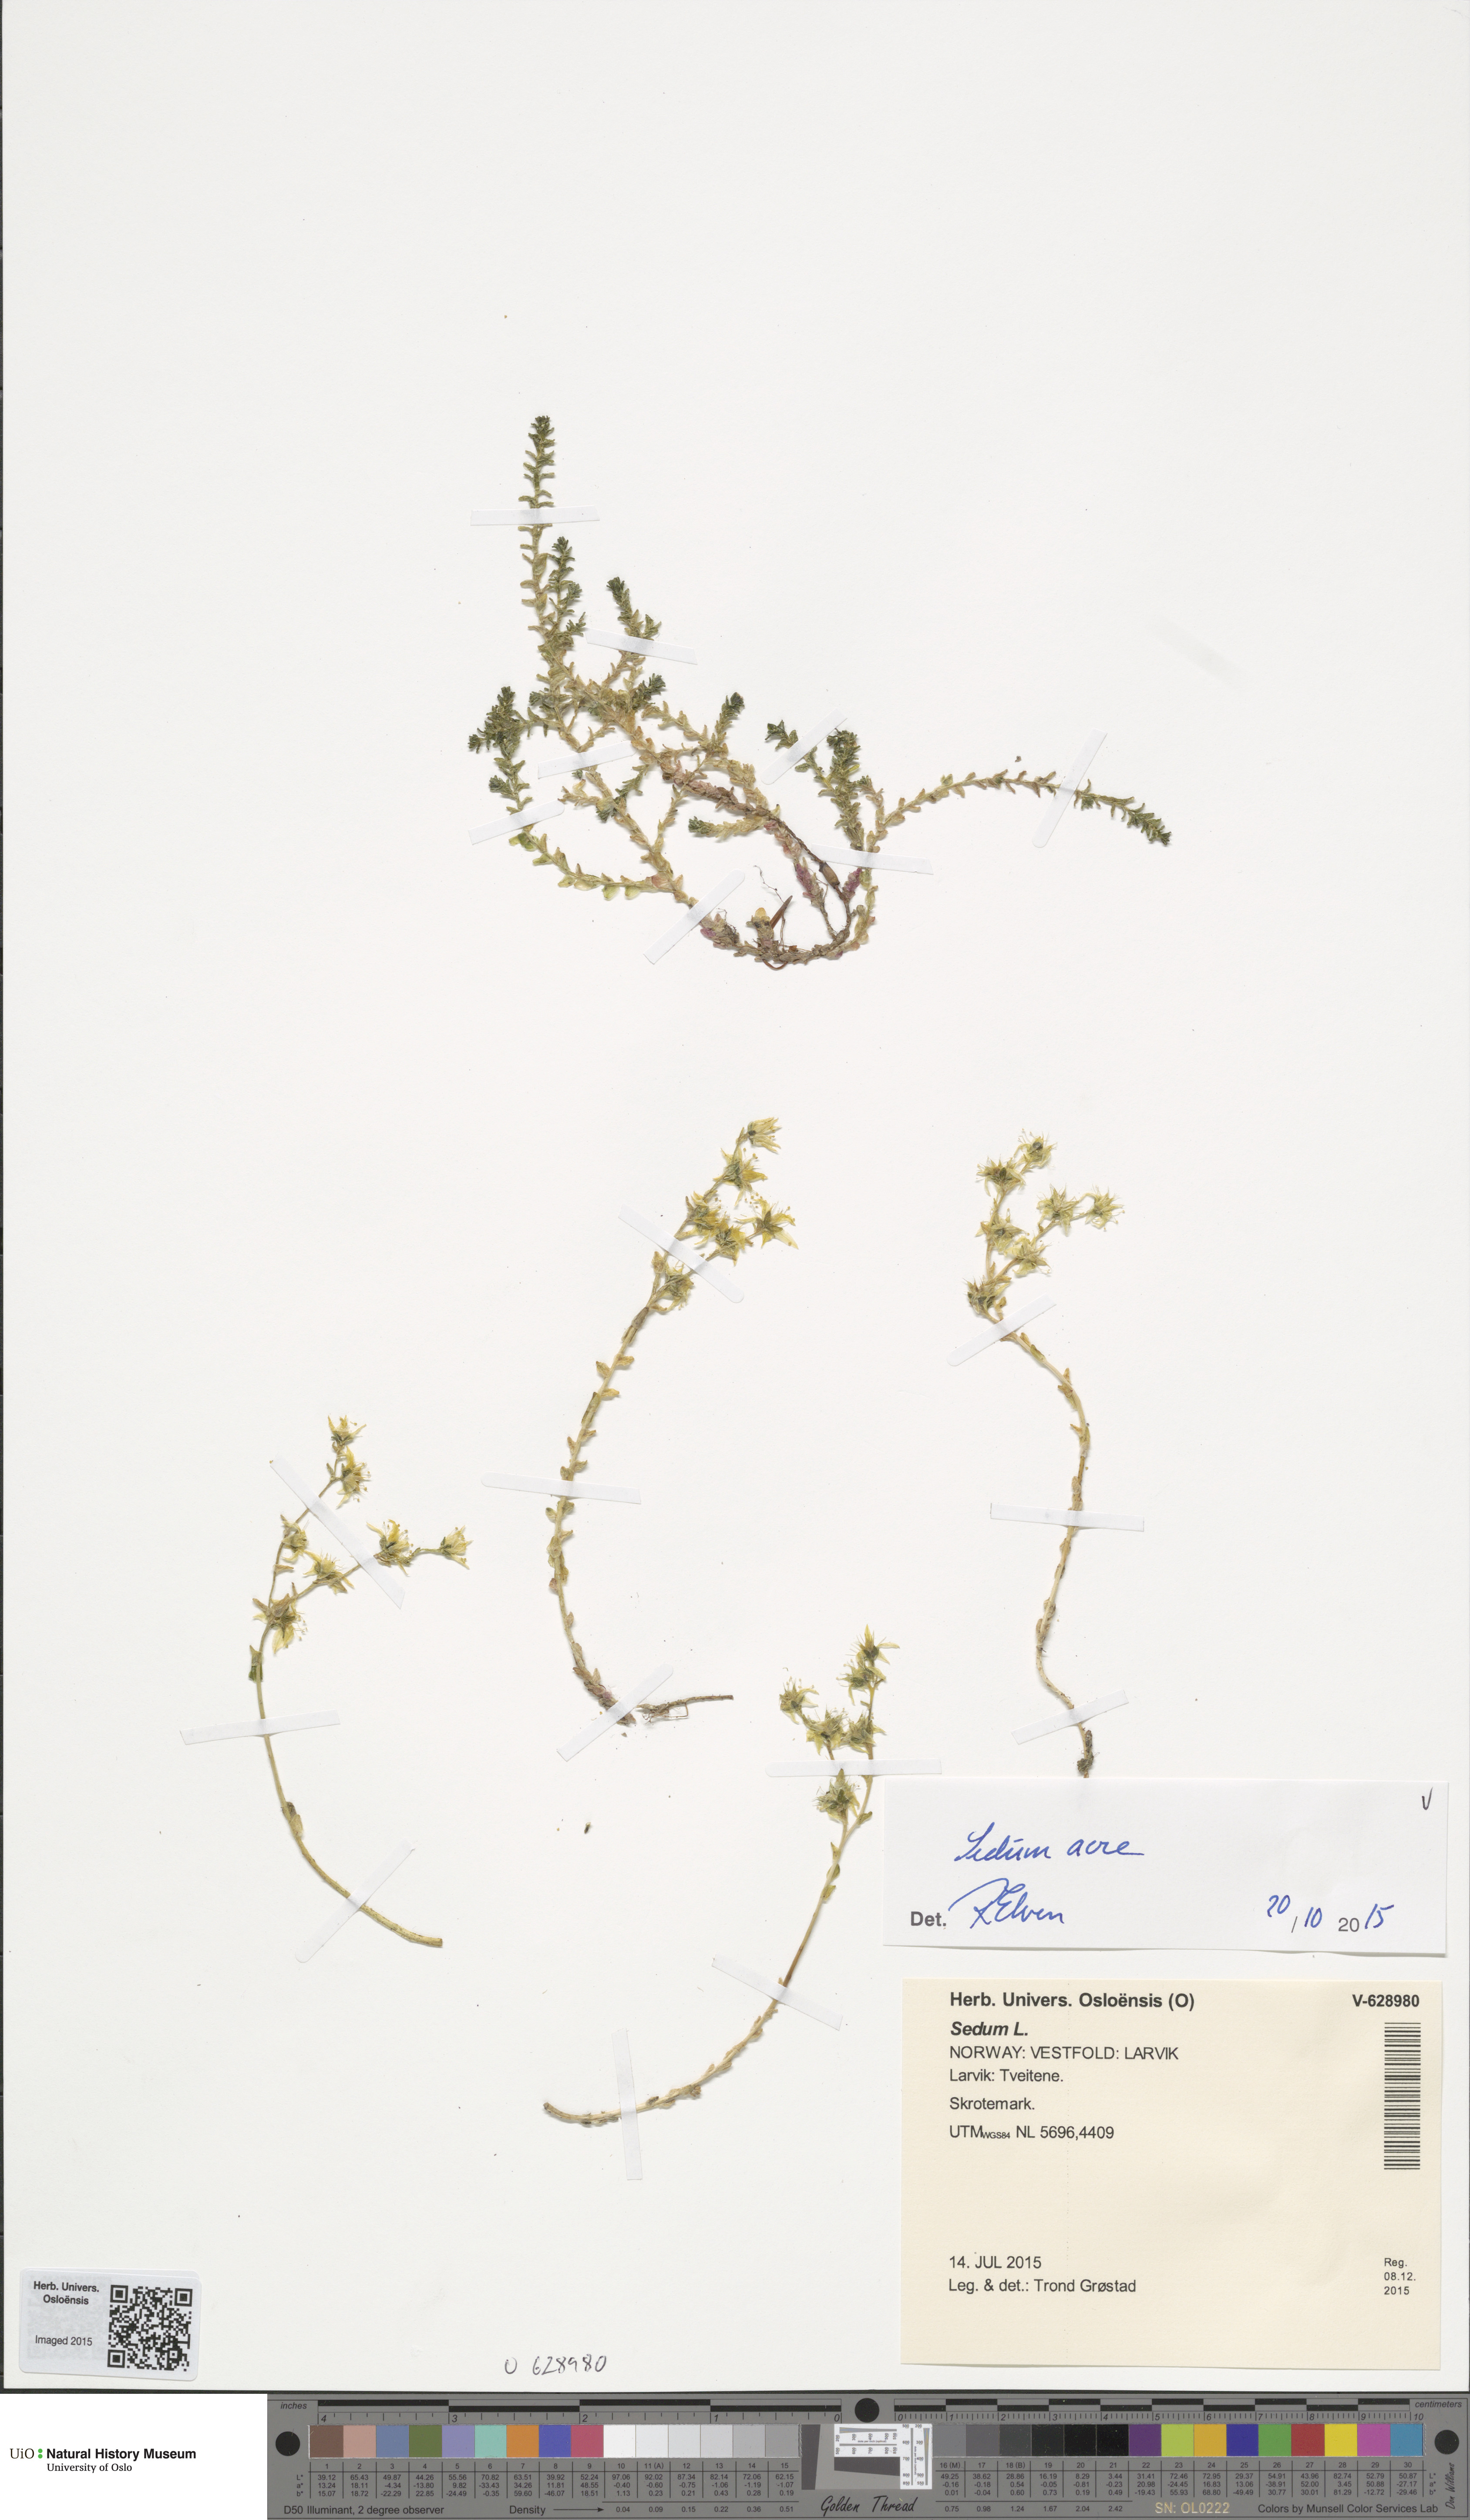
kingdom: Plantae
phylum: Tracheophyta
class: Magnoliopsida
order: Saxifragales
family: Crassulaceae
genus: Sedum
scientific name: Sedum acre
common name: Biting stonecrop
